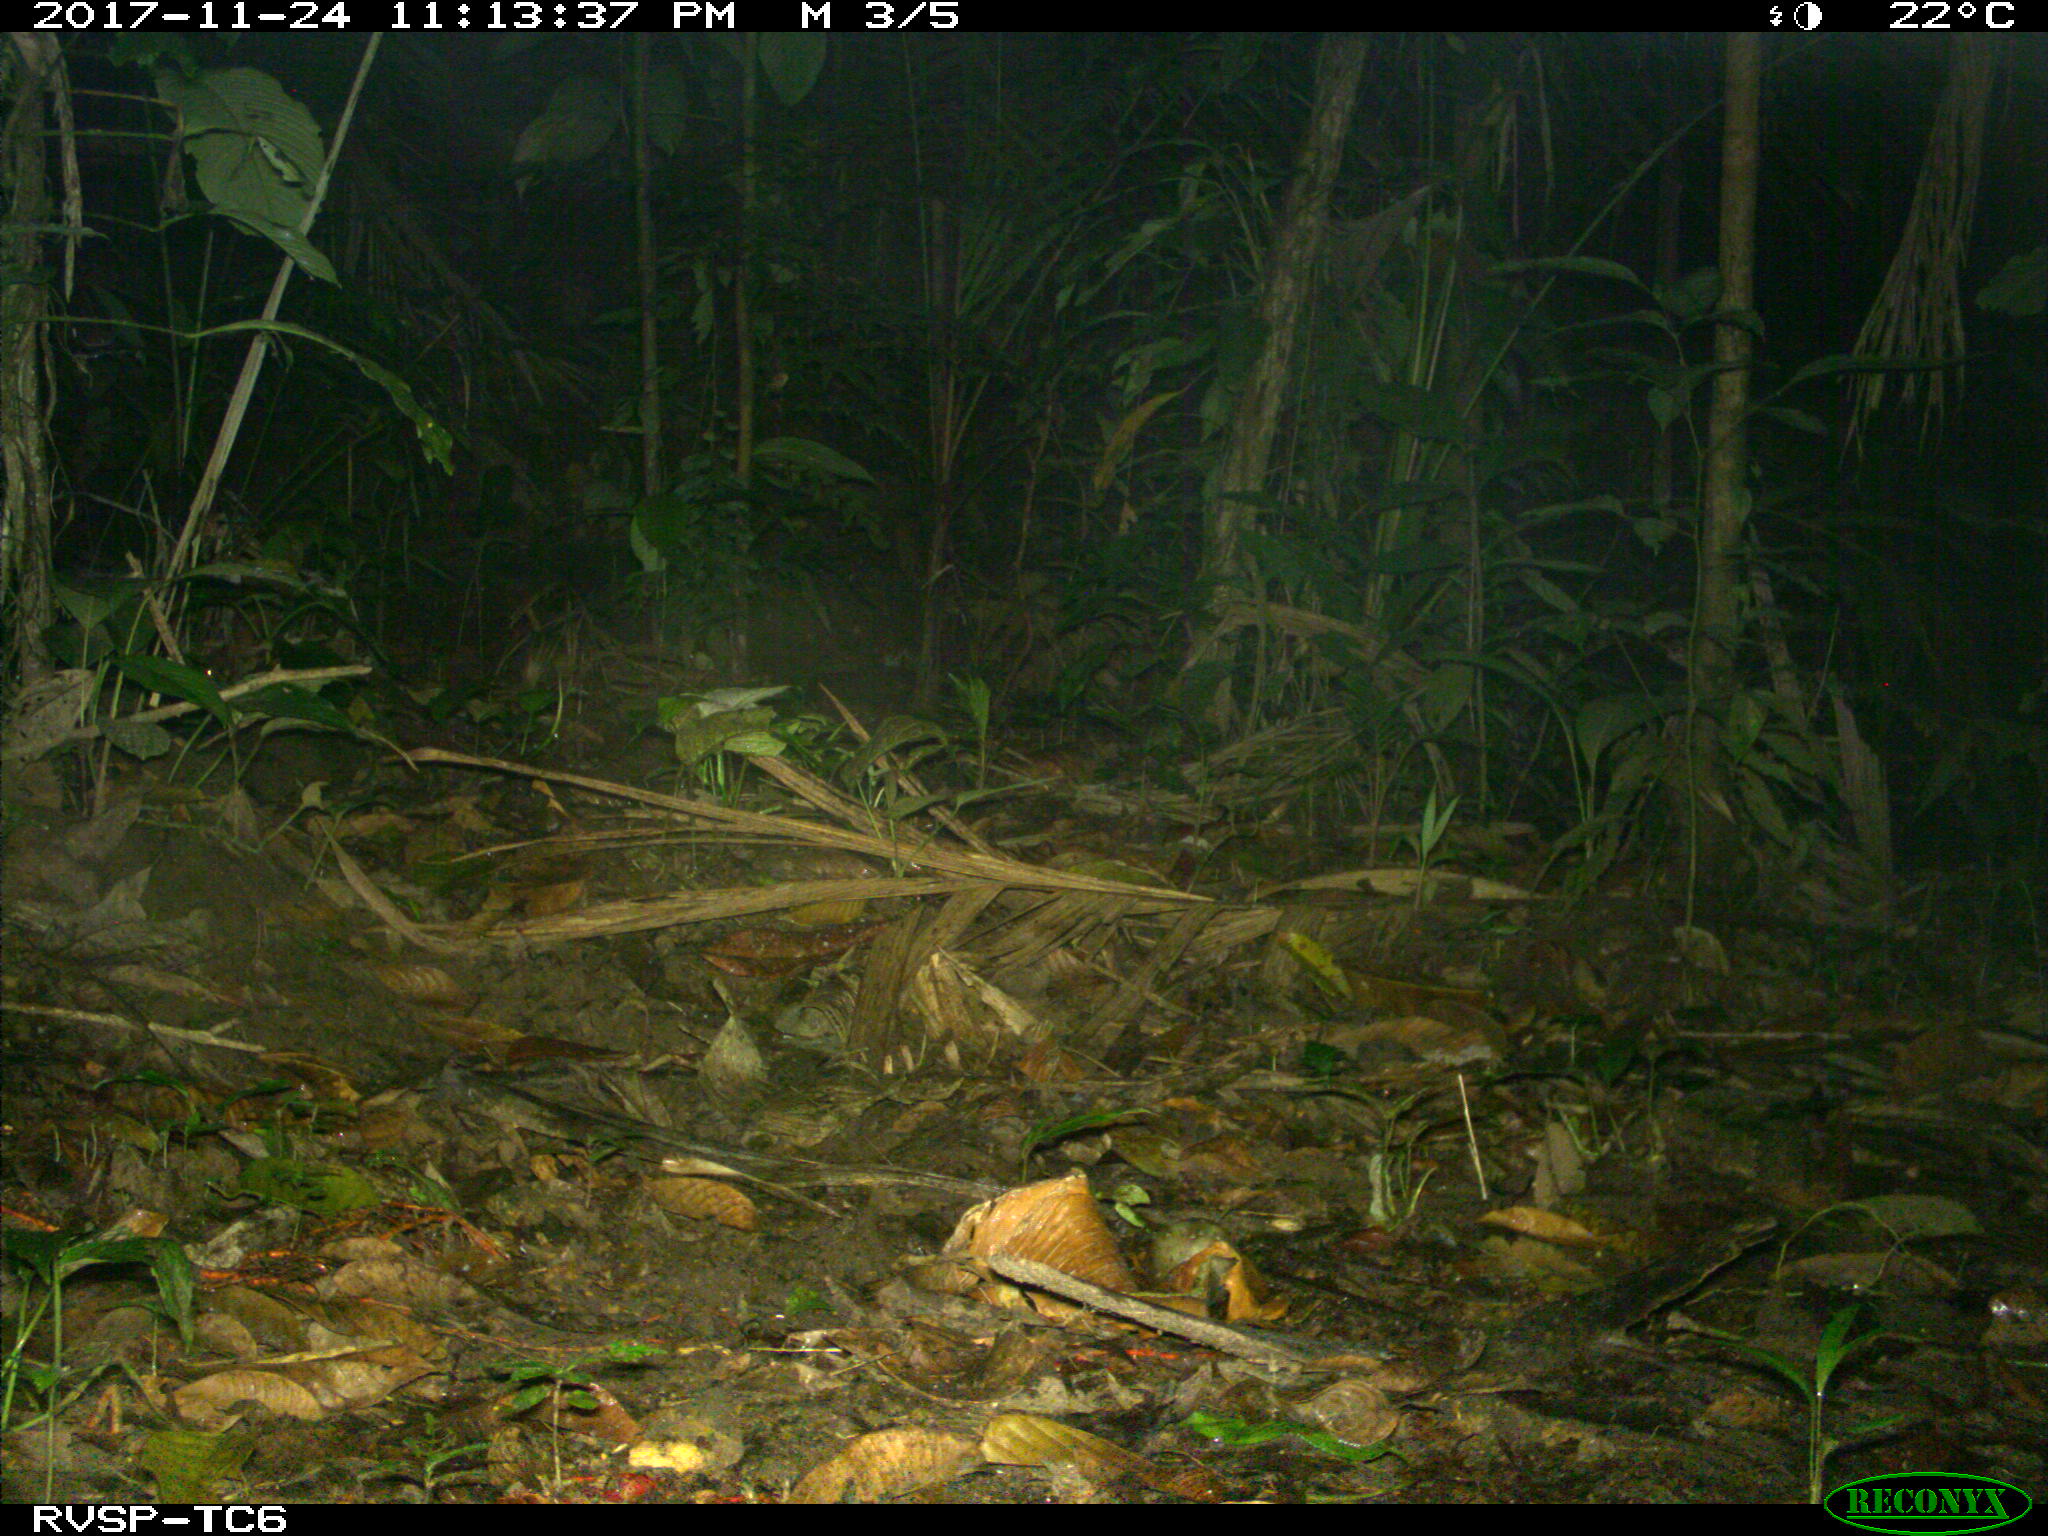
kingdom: Animalia
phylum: Chordata
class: Mammalia
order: Rodentia
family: Echimyidae
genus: Proechimys
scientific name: Proechimys
